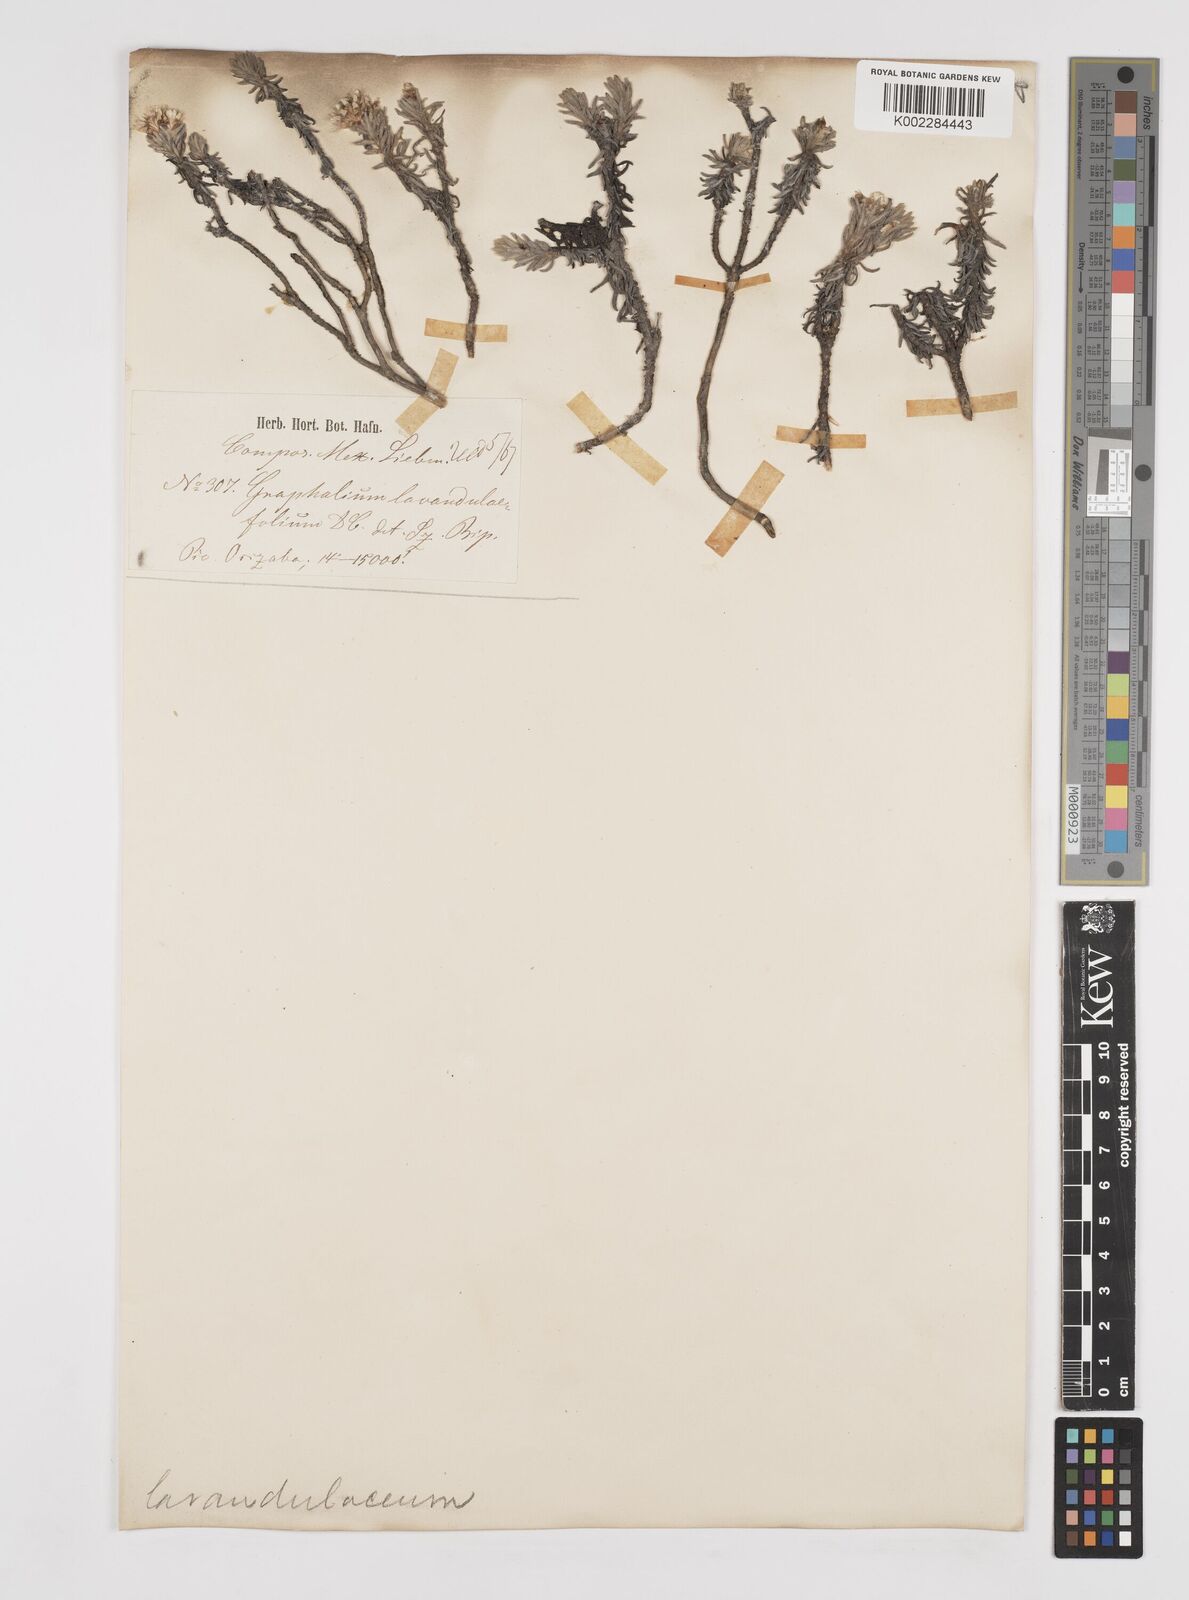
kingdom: Plantae
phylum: Tracheophyta
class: Magnoliopsida
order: Asterales
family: Asteraceae
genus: Gnaphaliothamnus
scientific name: Gnaphaliothamnus lavandulifolius
